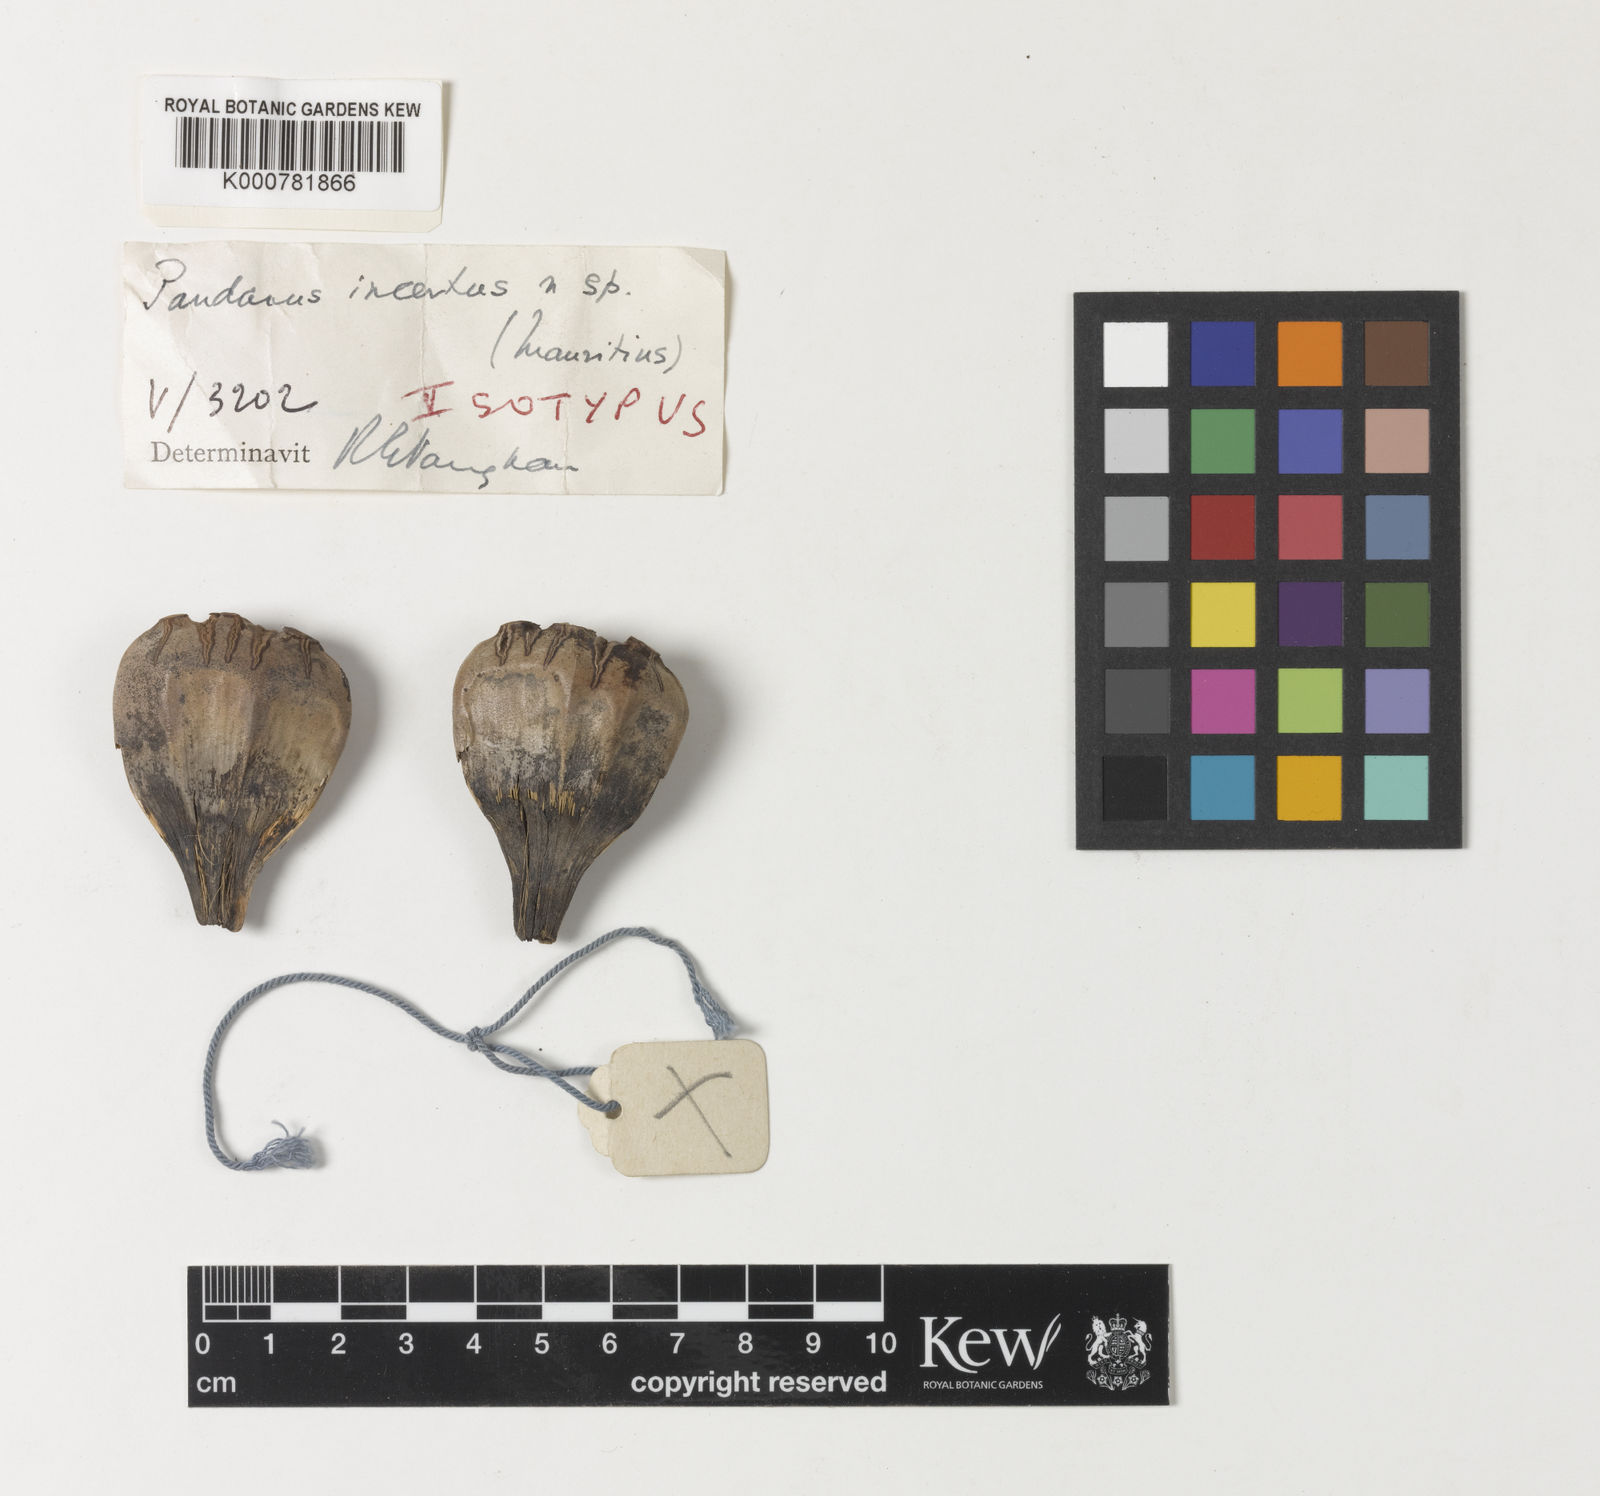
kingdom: Plantae
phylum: Tracheophyta
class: Liliopsida
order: Pandanales
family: Pandanaceae
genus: Pandanus
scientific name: Pandanus incertus
